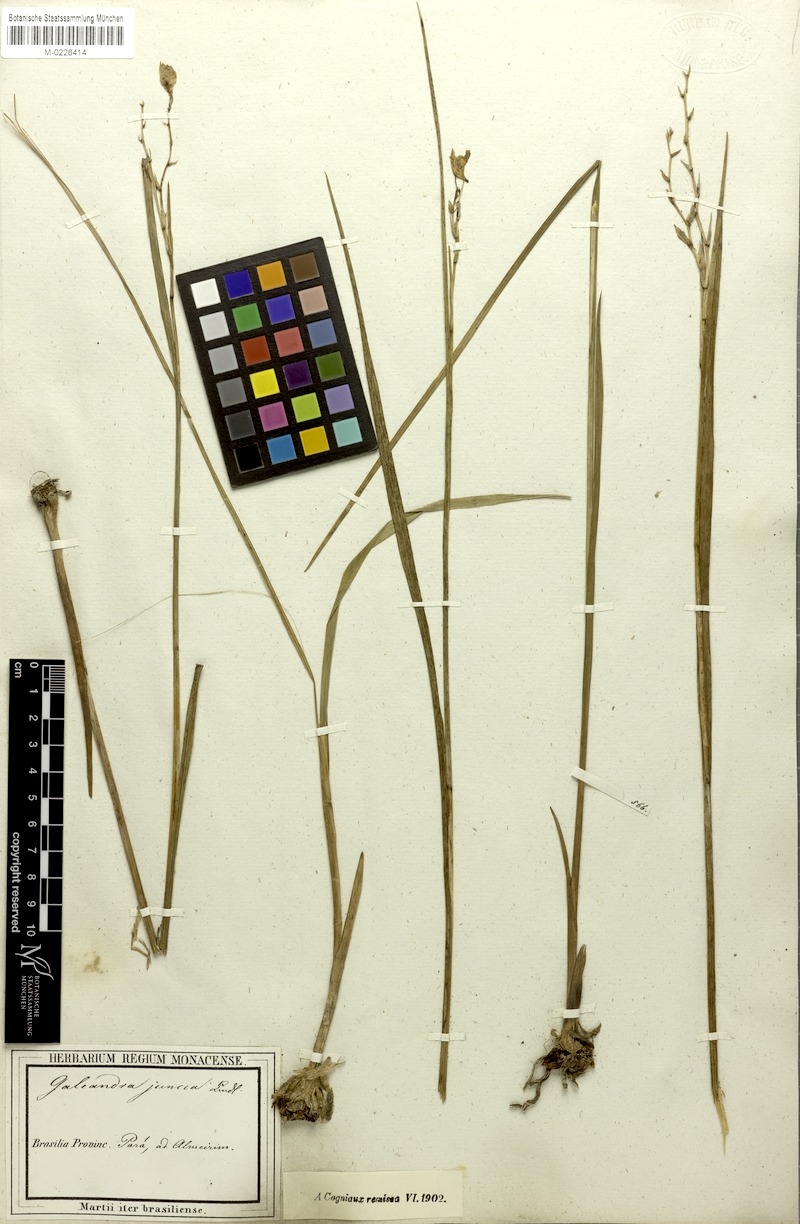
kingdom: Plantae
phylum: Tracheophyta
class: Liliopsida
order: Asparagales
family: Orchidaceae
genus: Galeandra
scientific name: Galeandra styllomisantha
